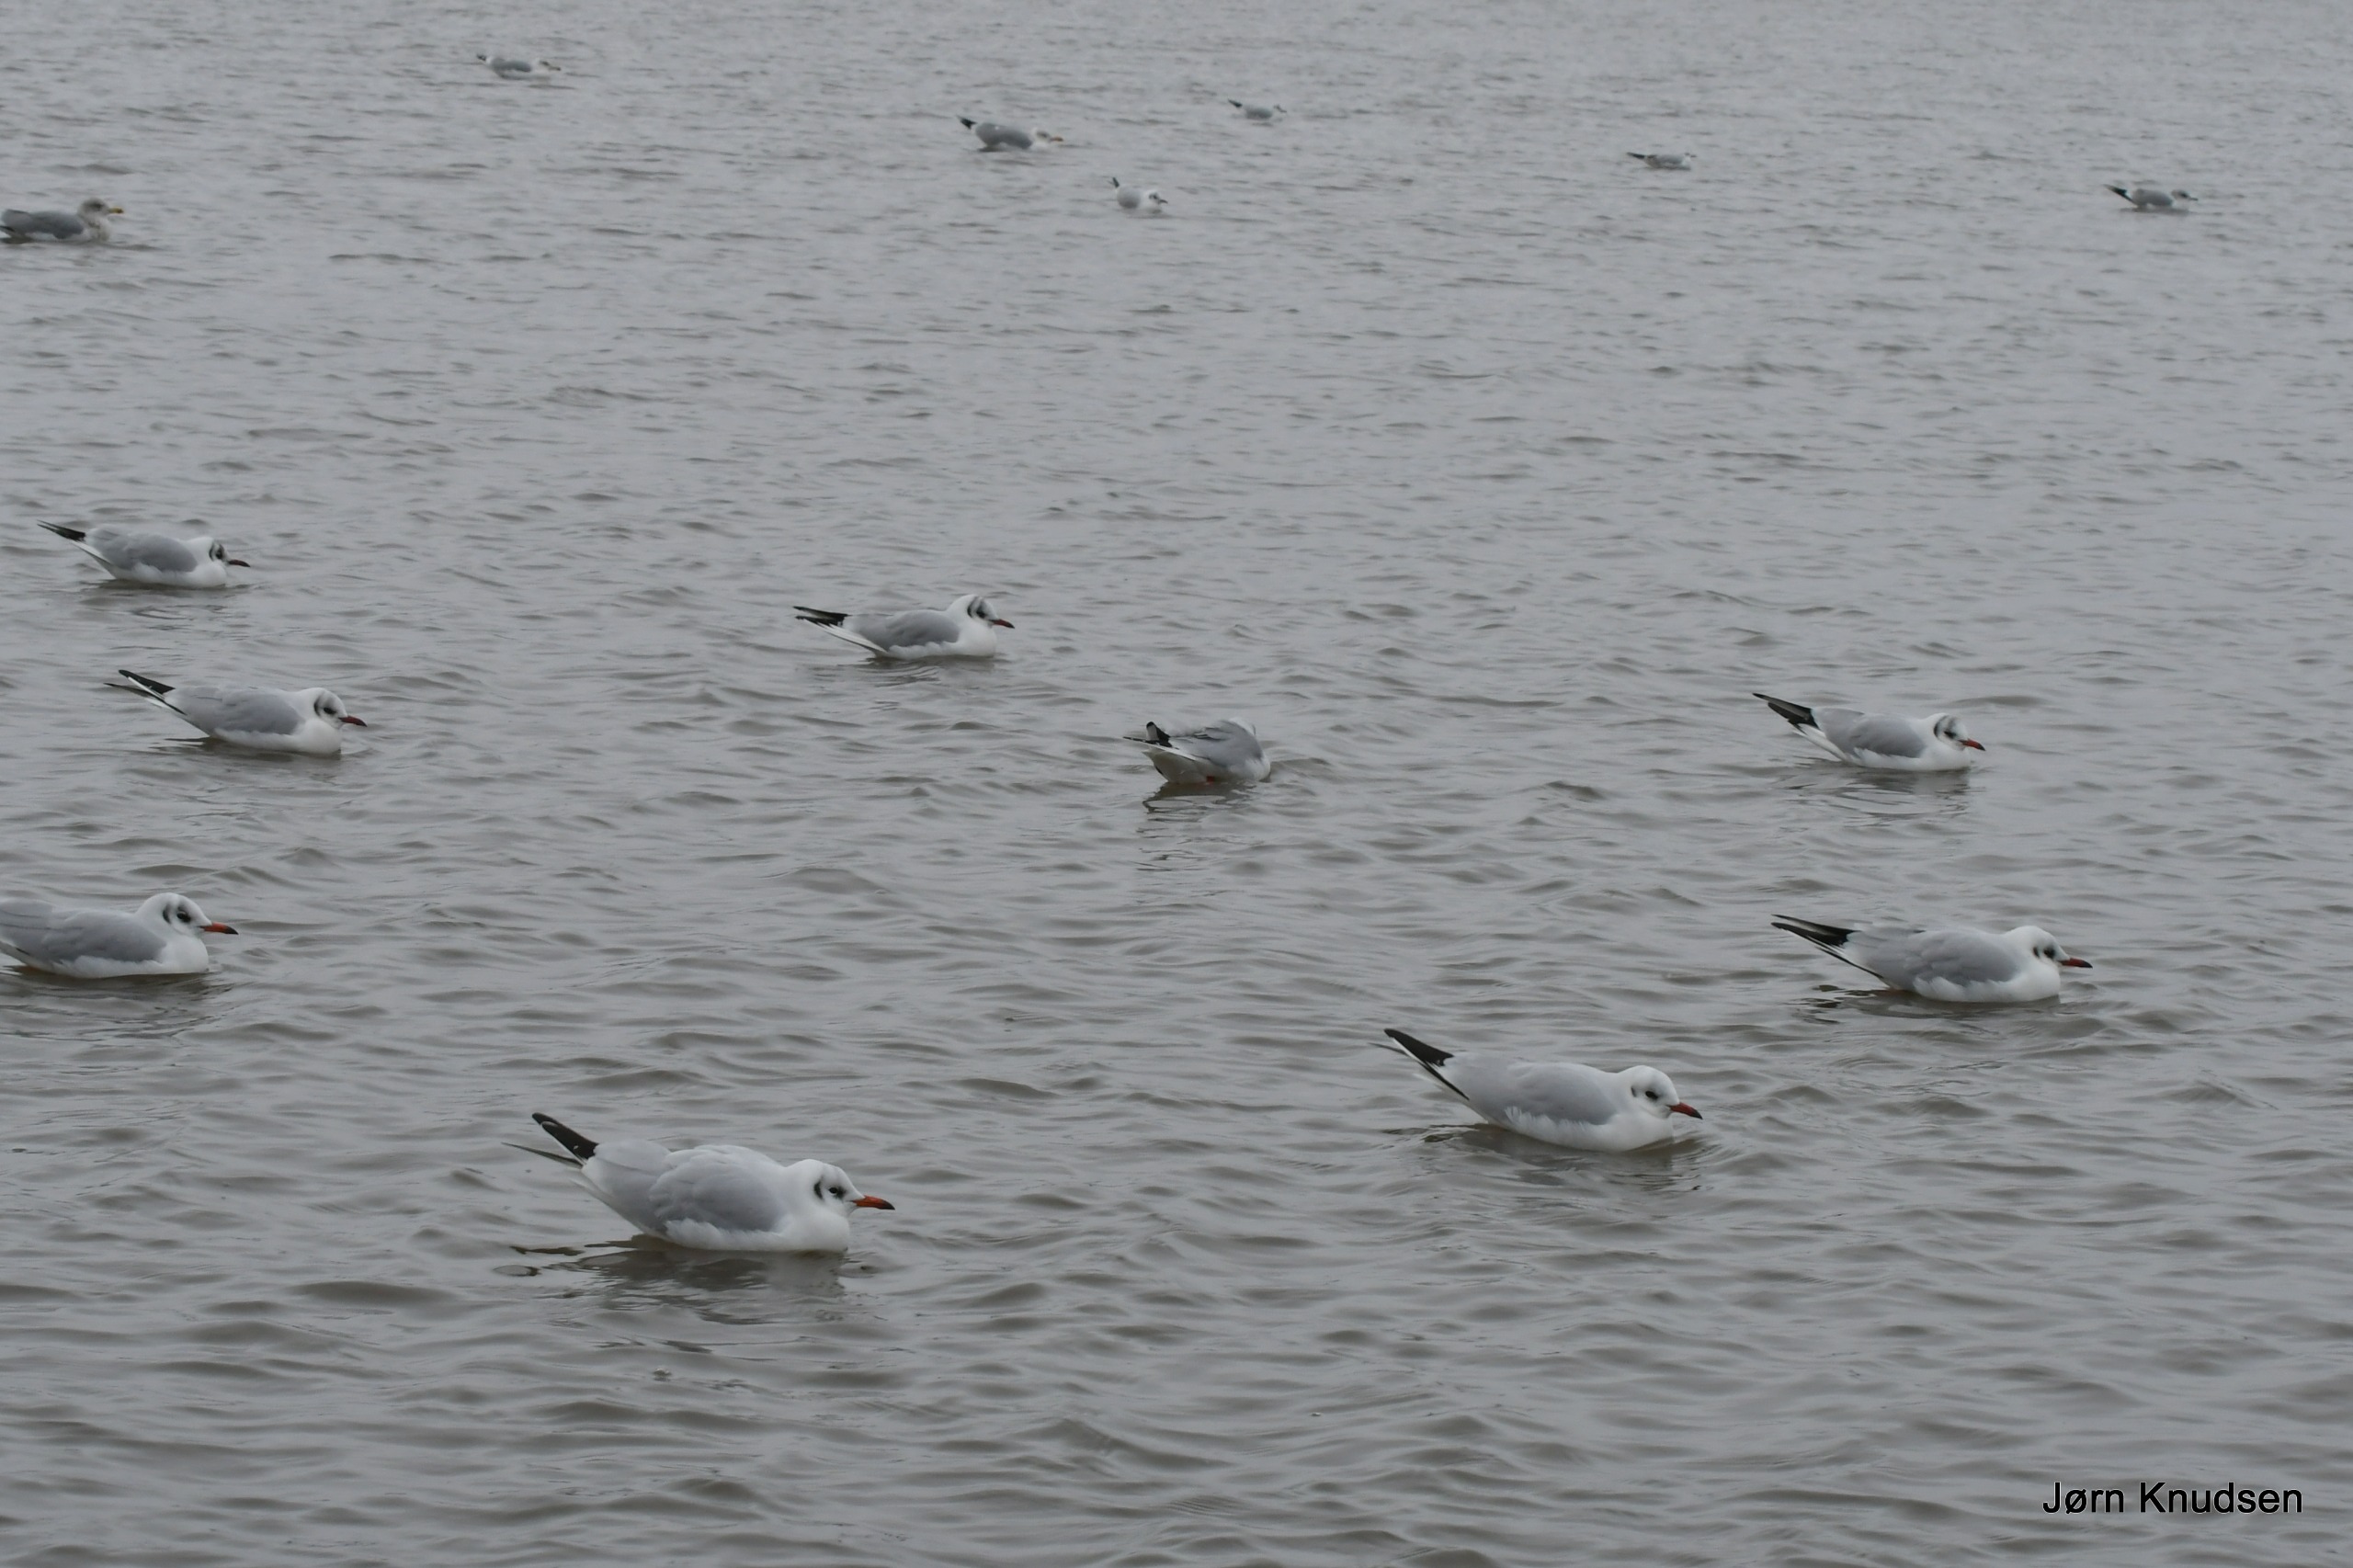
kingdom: Animalia
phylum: Chordata
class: Aves
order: Charadriiformes
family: Laridae
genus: Chroicocephalus
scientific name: Chroicocephalus ridibundus
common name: Hættemåge
